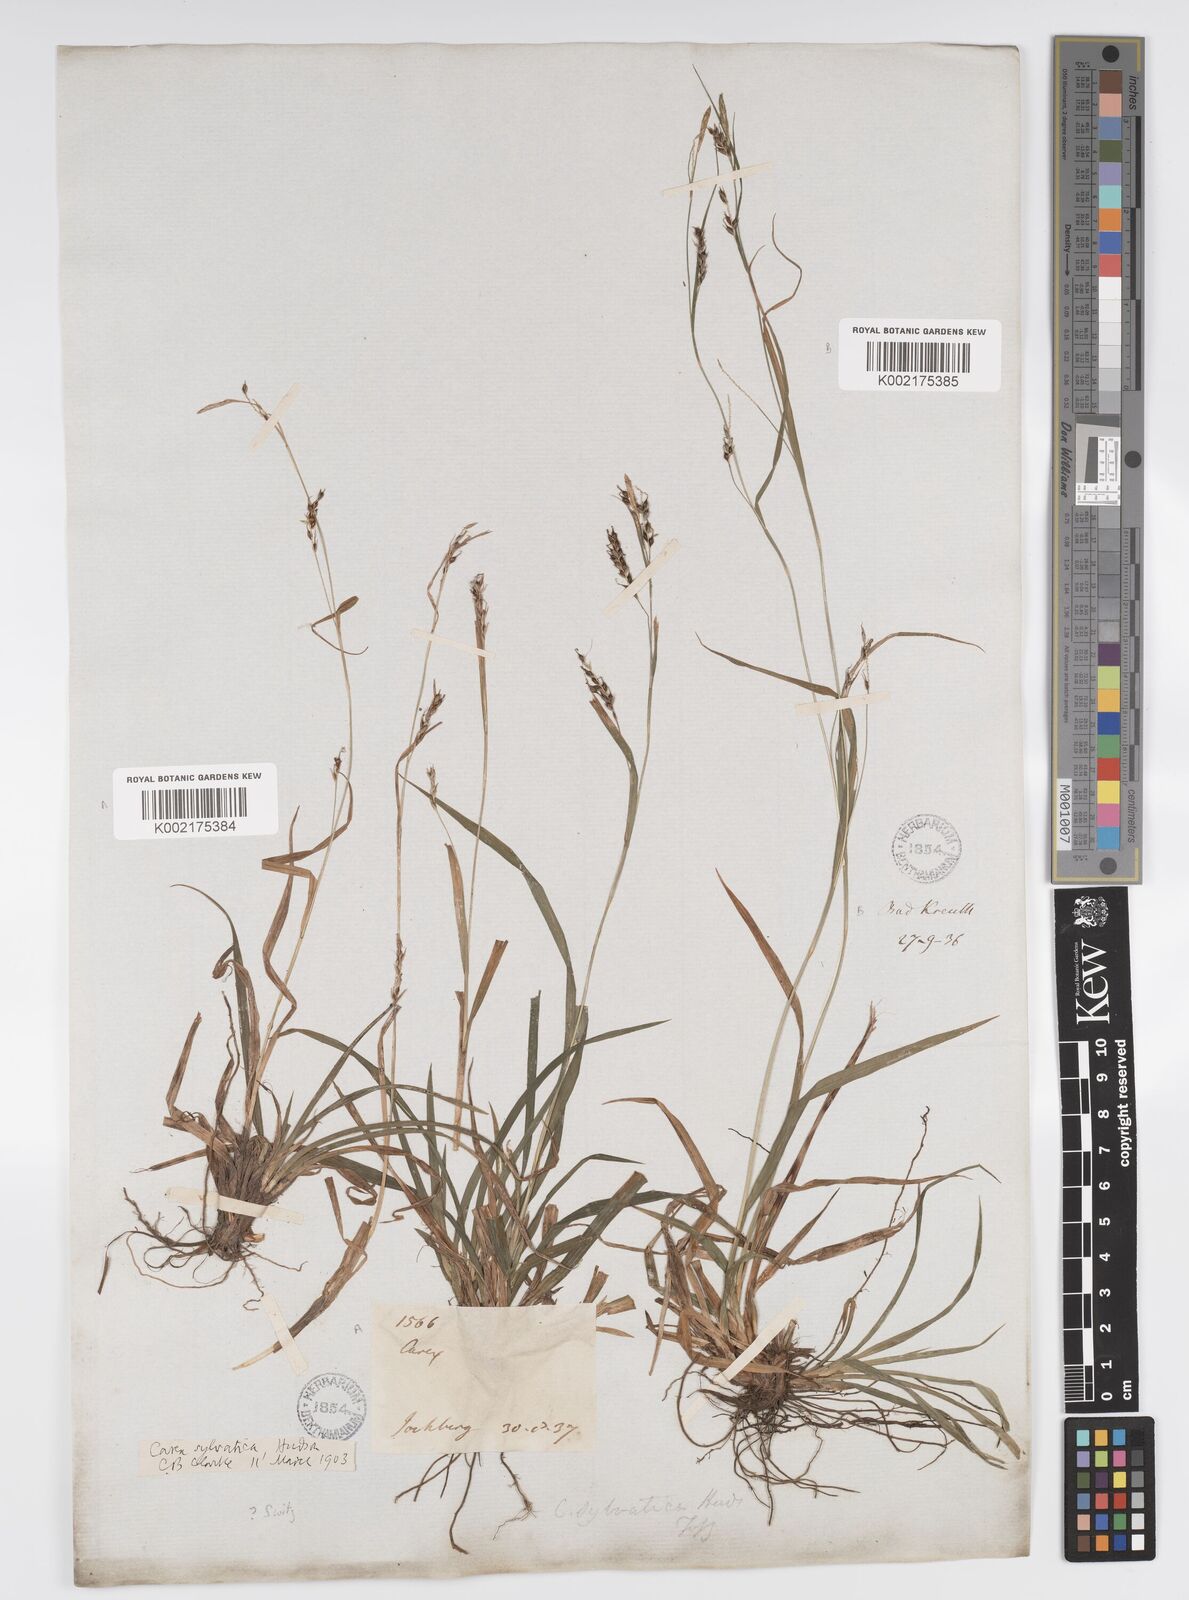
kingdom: Plantae
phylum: Tracheophyta
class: Liliopsida
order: Poales
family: Cyperaceae
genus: Carex
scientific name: Carex sylvatica
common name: Wood-sedge
